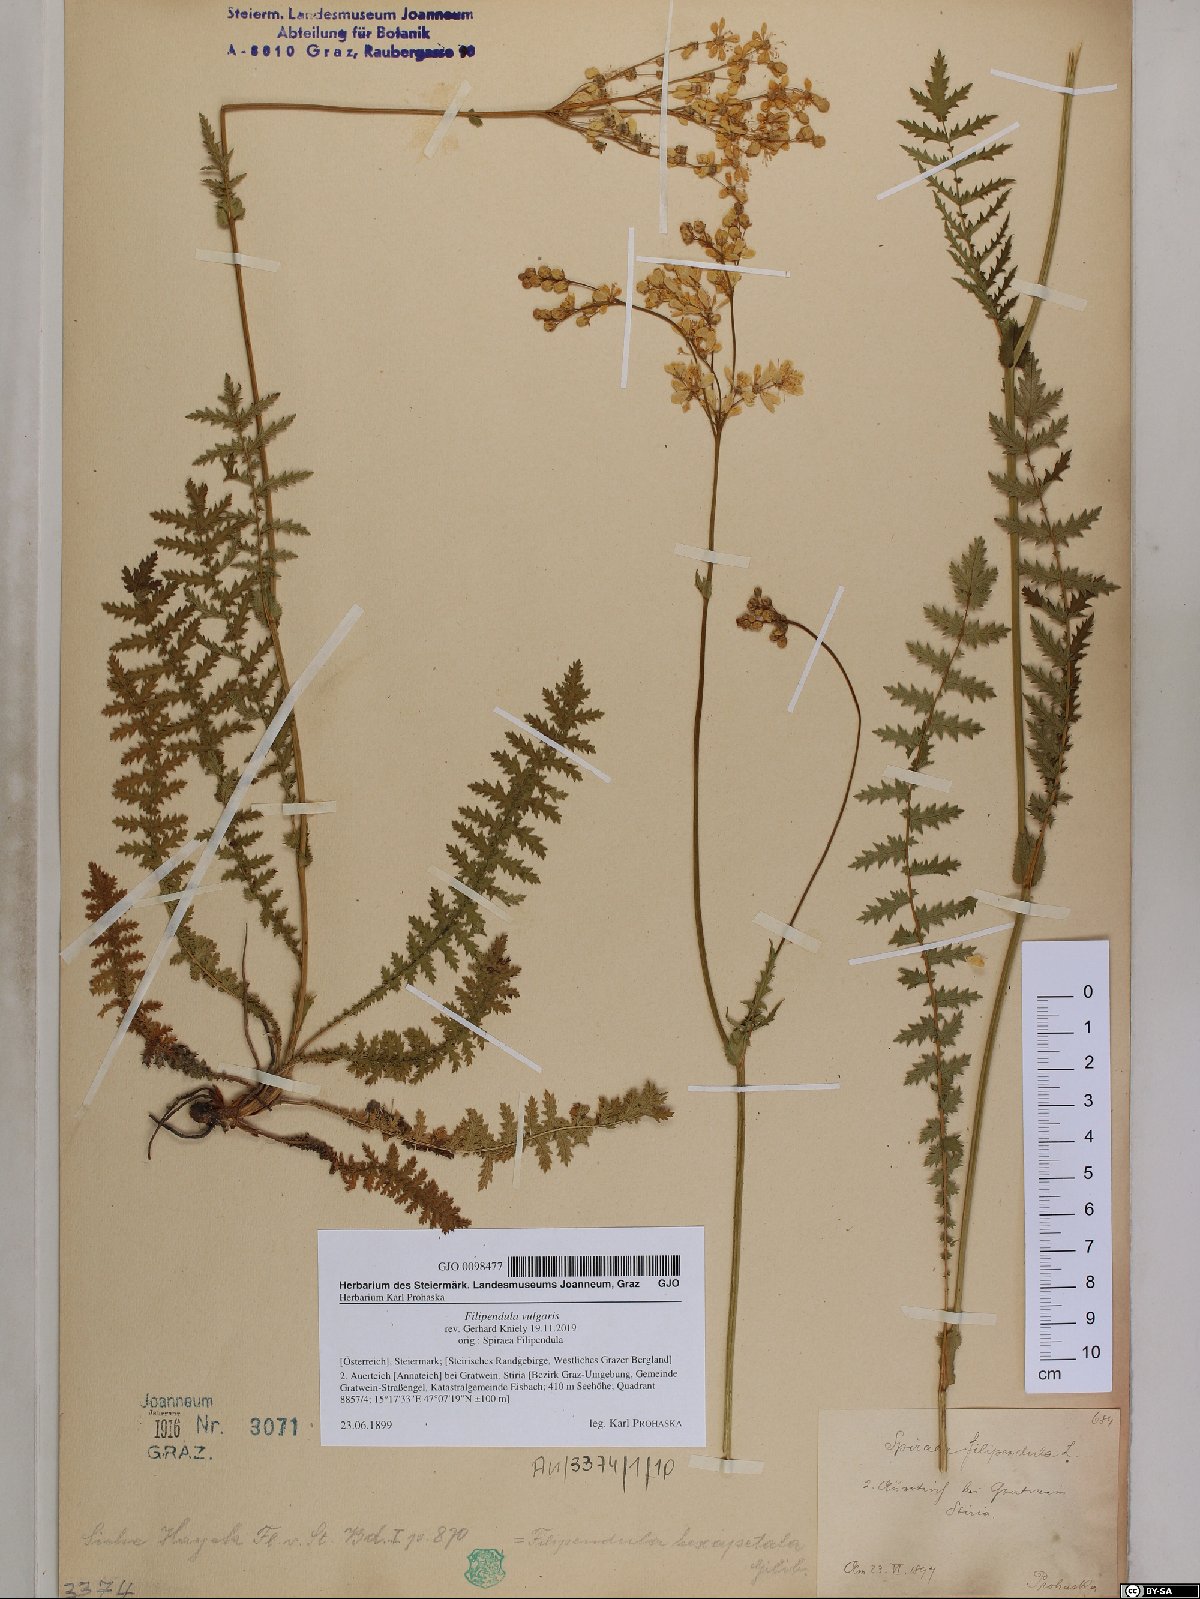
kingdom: Plantae
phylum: Tracheophyta
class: Magnoliopsida
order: Rosales
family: Rosaceae
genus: Filipendula
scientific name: Filipendula vulgaris
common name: Dropwort
